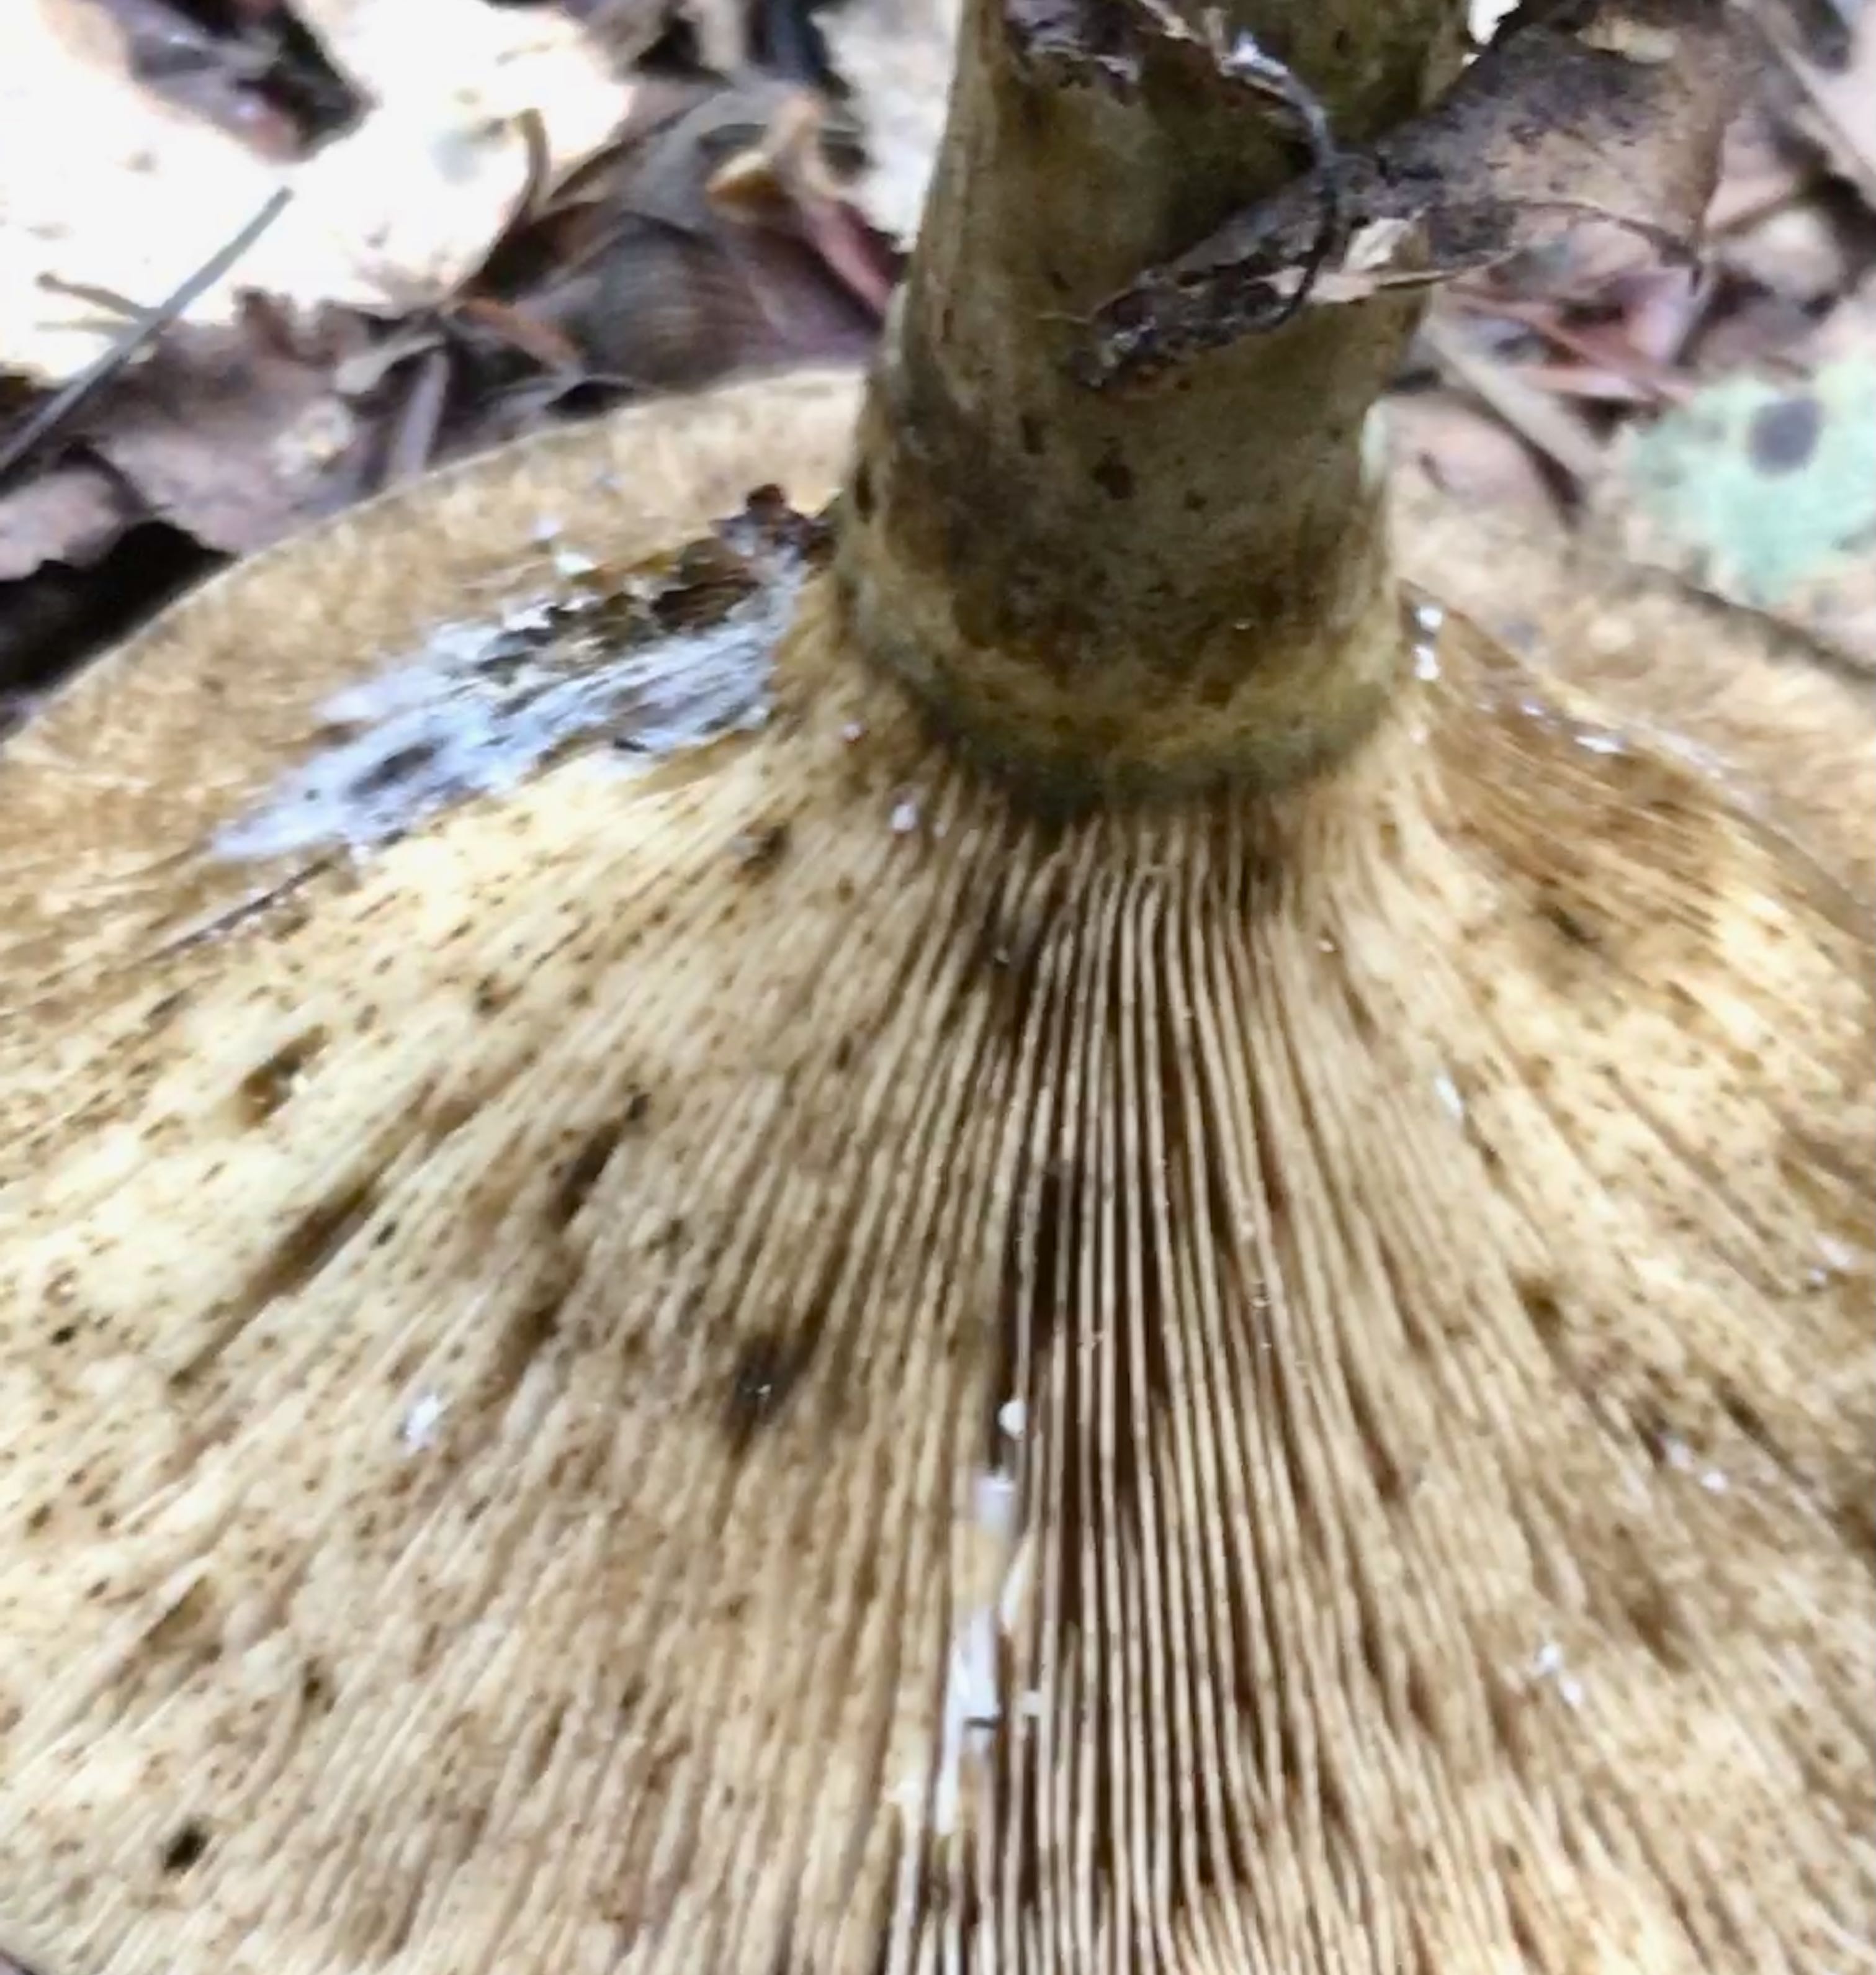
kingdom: Fungi
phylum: Basidiomycota
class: Agaricomycetes
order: Russulales
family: Russulaceae
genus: Lactarius
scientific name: Lactarius necator
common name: manddraber-mælkehat
